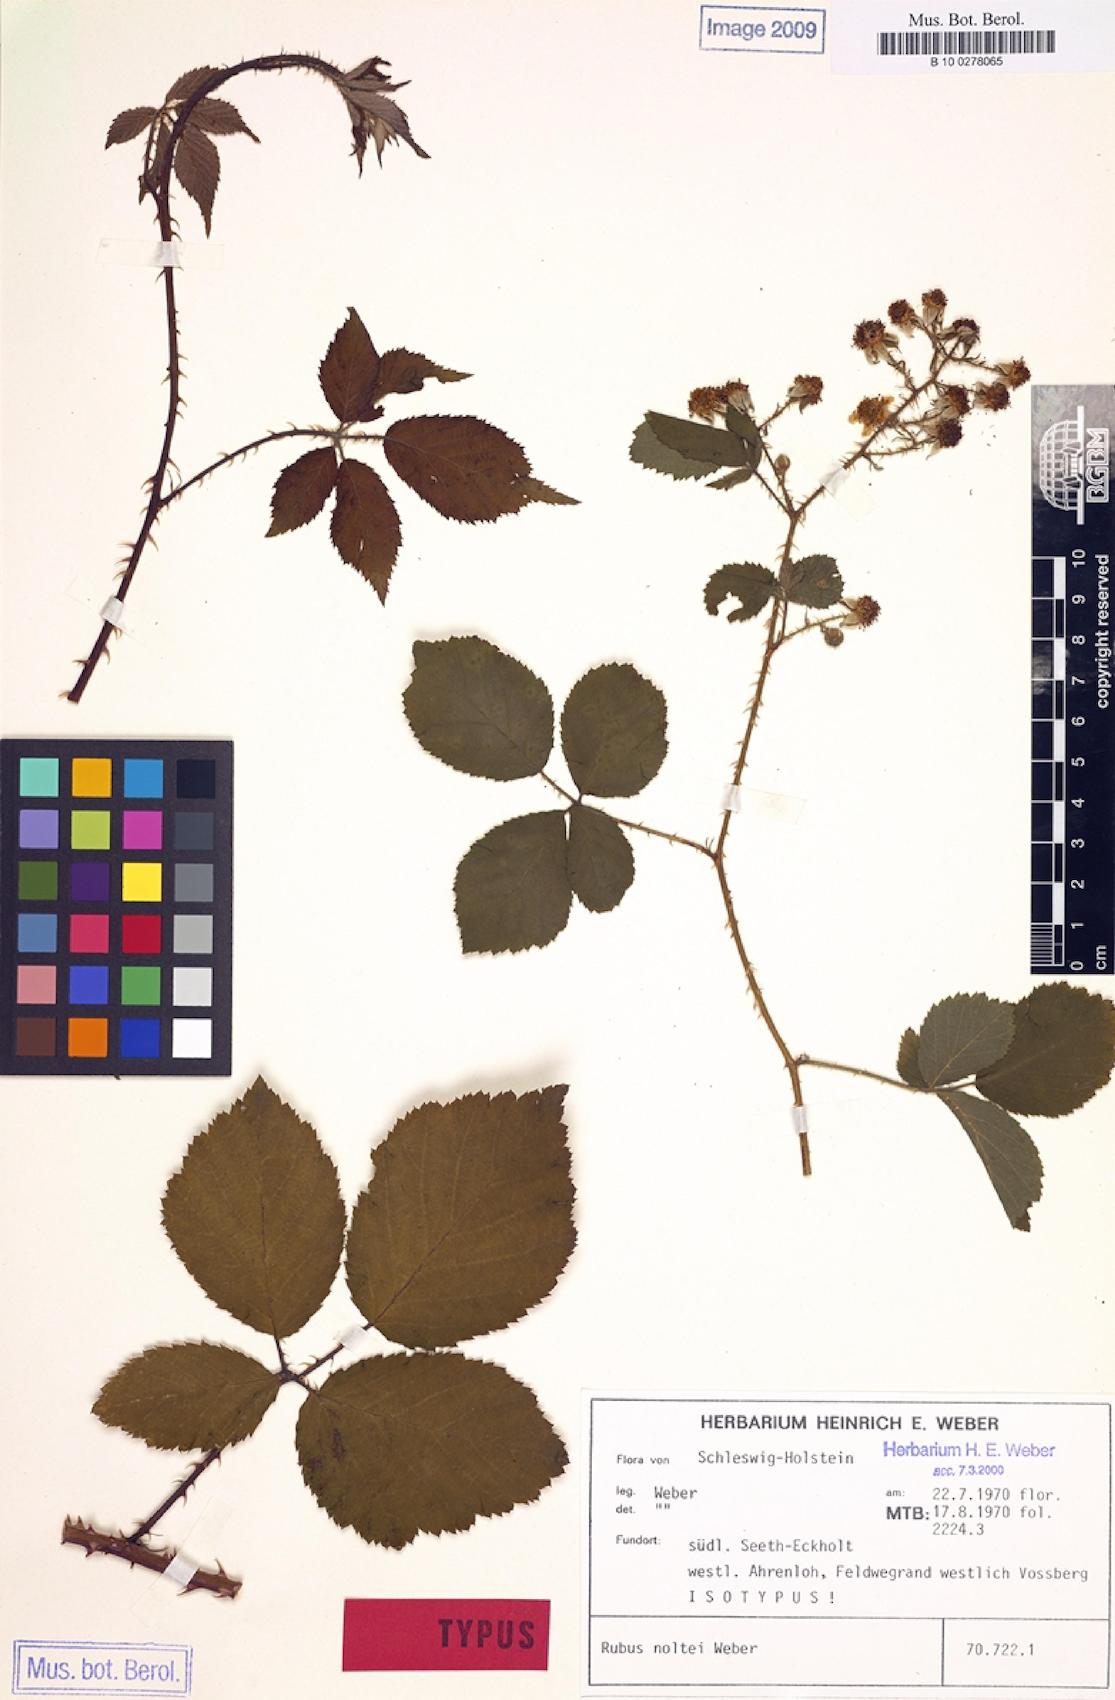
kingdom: Plantae
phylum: Tracheophyta
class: Magnoliopsida
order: Rosales
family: Rosaceae
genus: Rubus
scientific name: Rubus noltei
